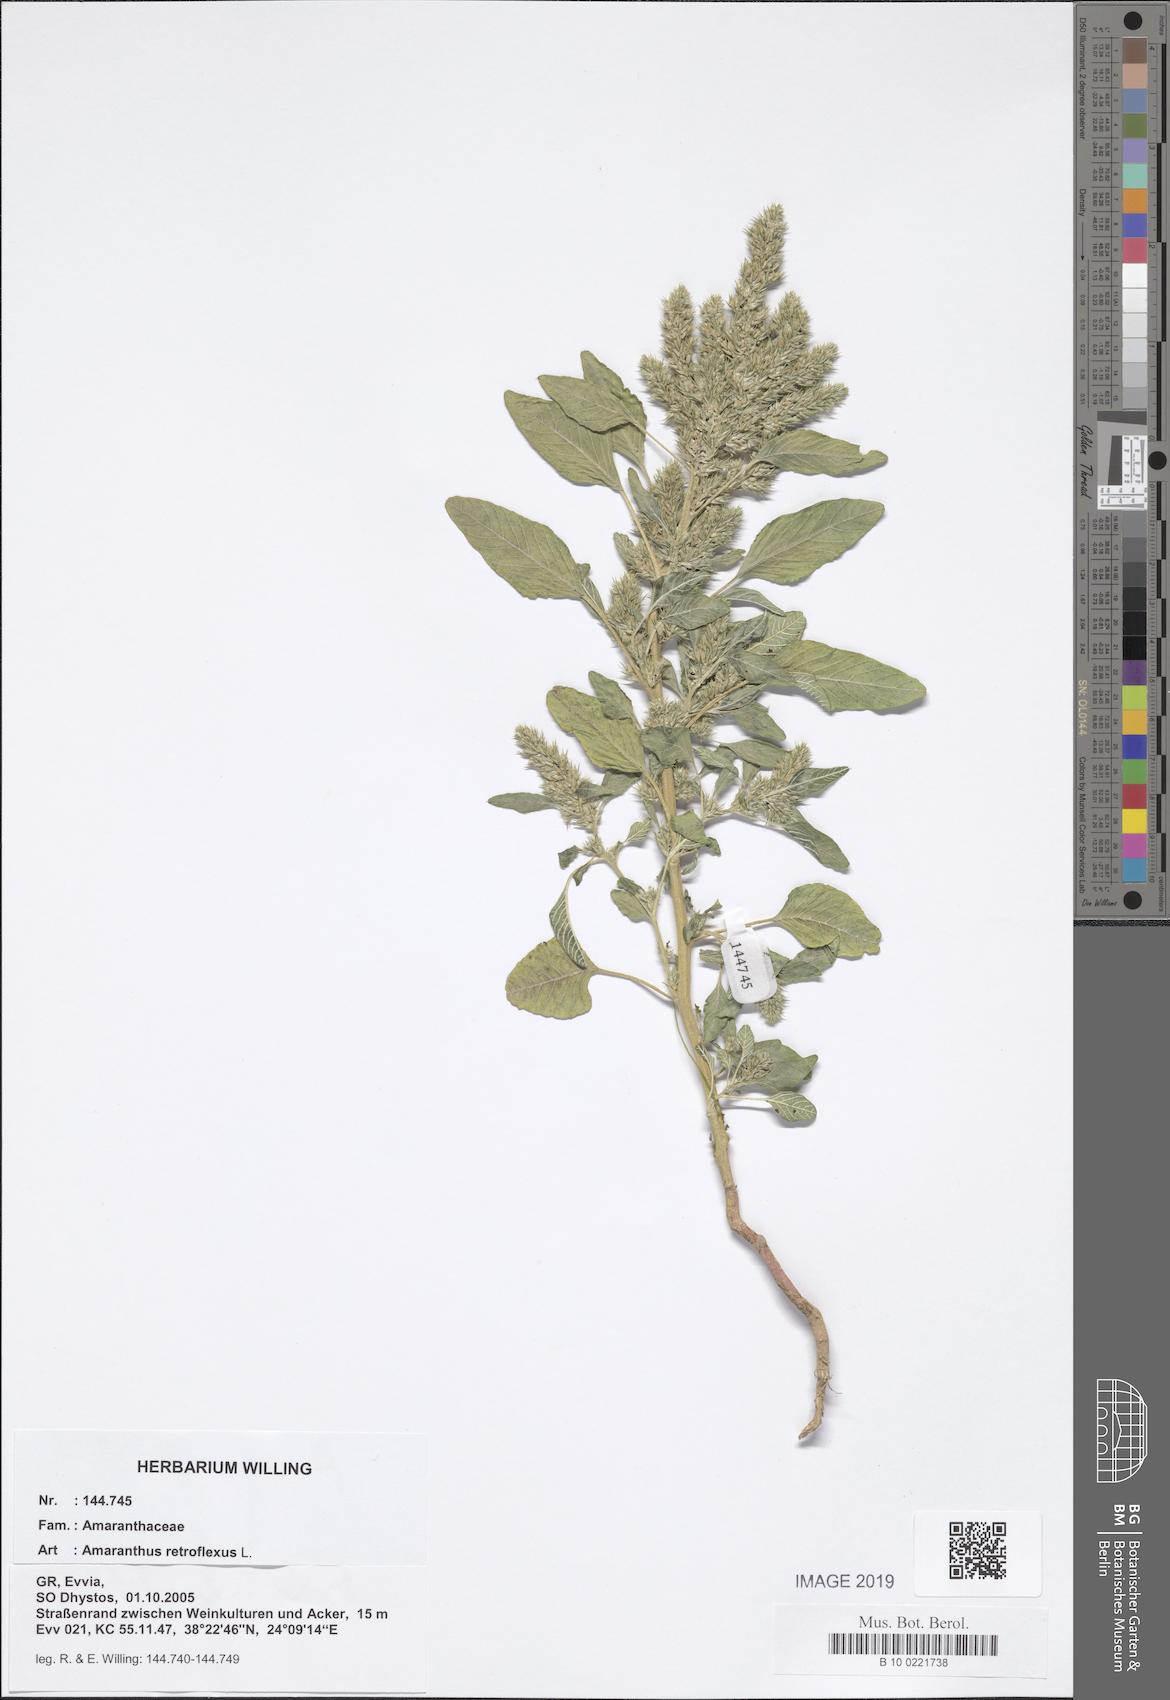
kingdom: Plantae
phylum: Tracheophyta
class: Magnoliopsida
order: Caryophyllales
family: Amaranthaceae
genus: Amaranthus
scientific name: Amaranthus retroflexus
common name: Redroot amaranth
